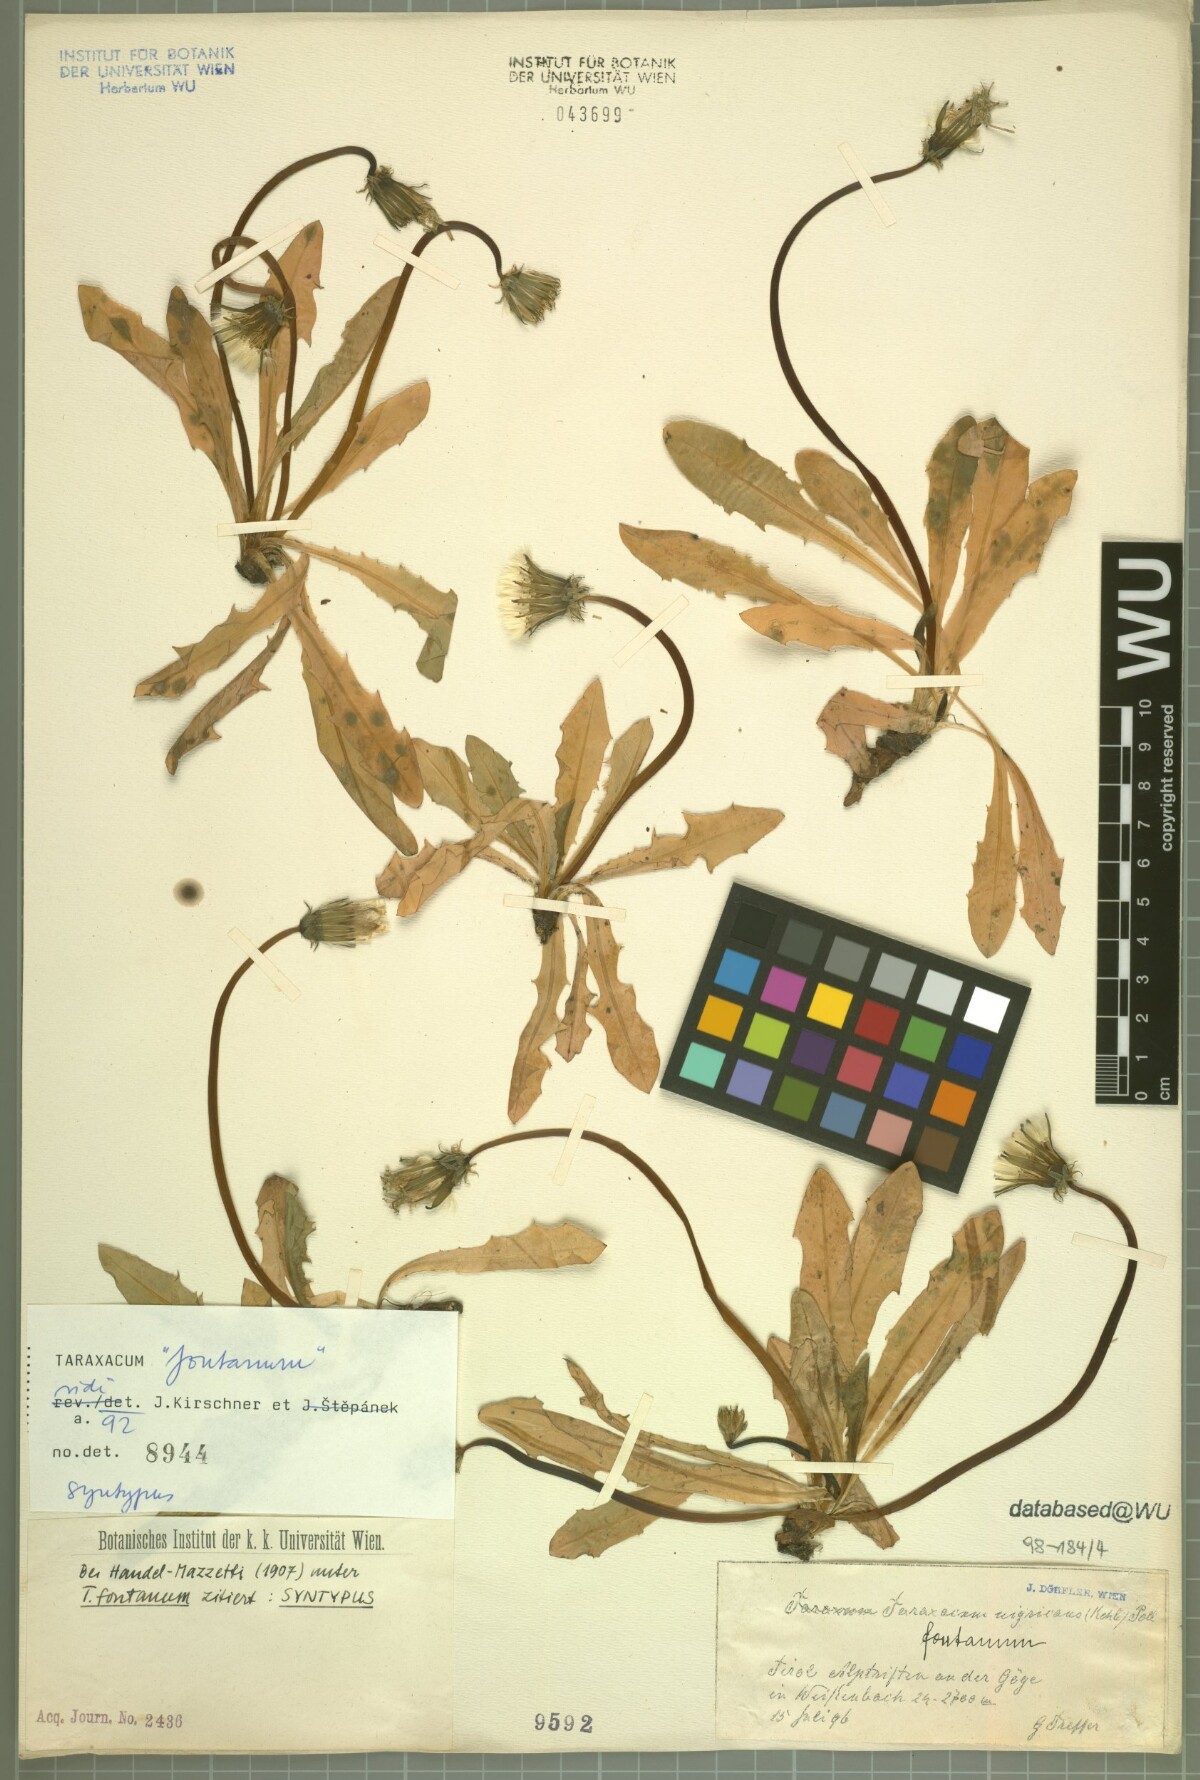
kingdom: Plantae
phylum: Tracheophyta
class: Magnoliopsida
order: Asterales
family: Asteraceae
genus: Taraxacum
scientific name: Taraxacum fontanum
